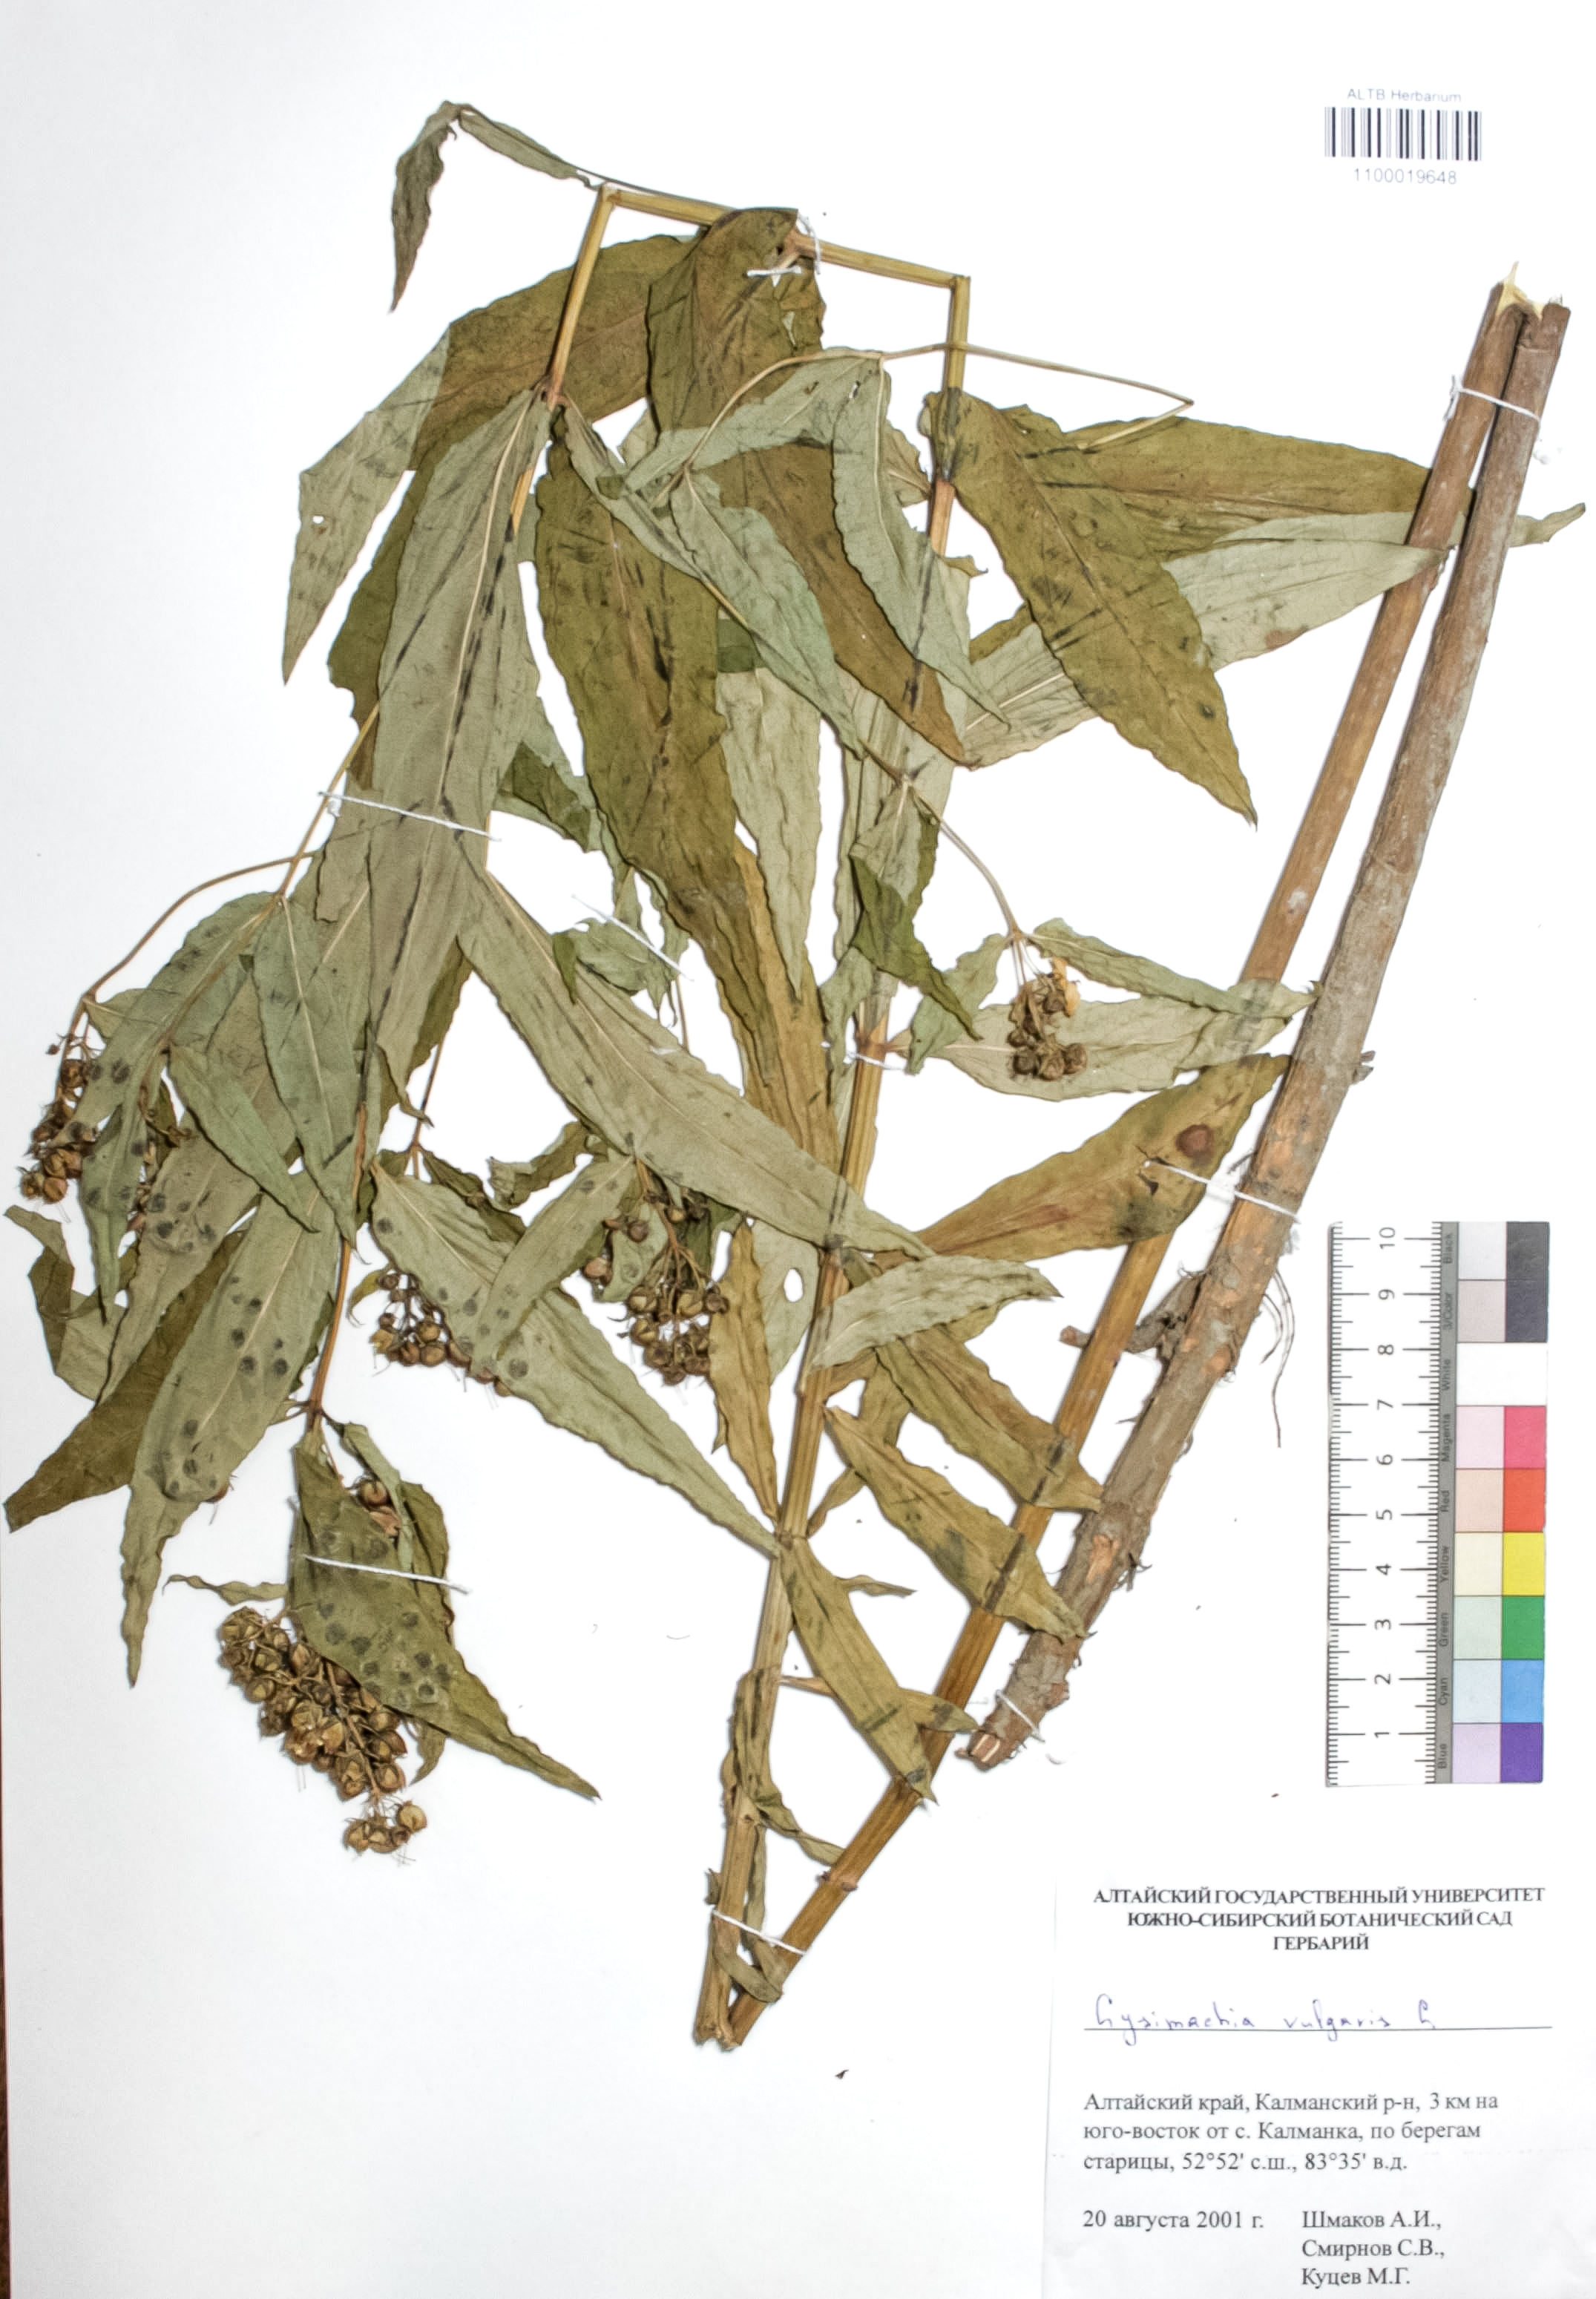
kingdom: Plantae
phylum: Tracheophyta
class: Magnoliopsida
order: Ericales
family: Primulaceae
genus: Lysimachia
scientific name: Lysimachia vulgaris
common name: Yellow loosestrife
